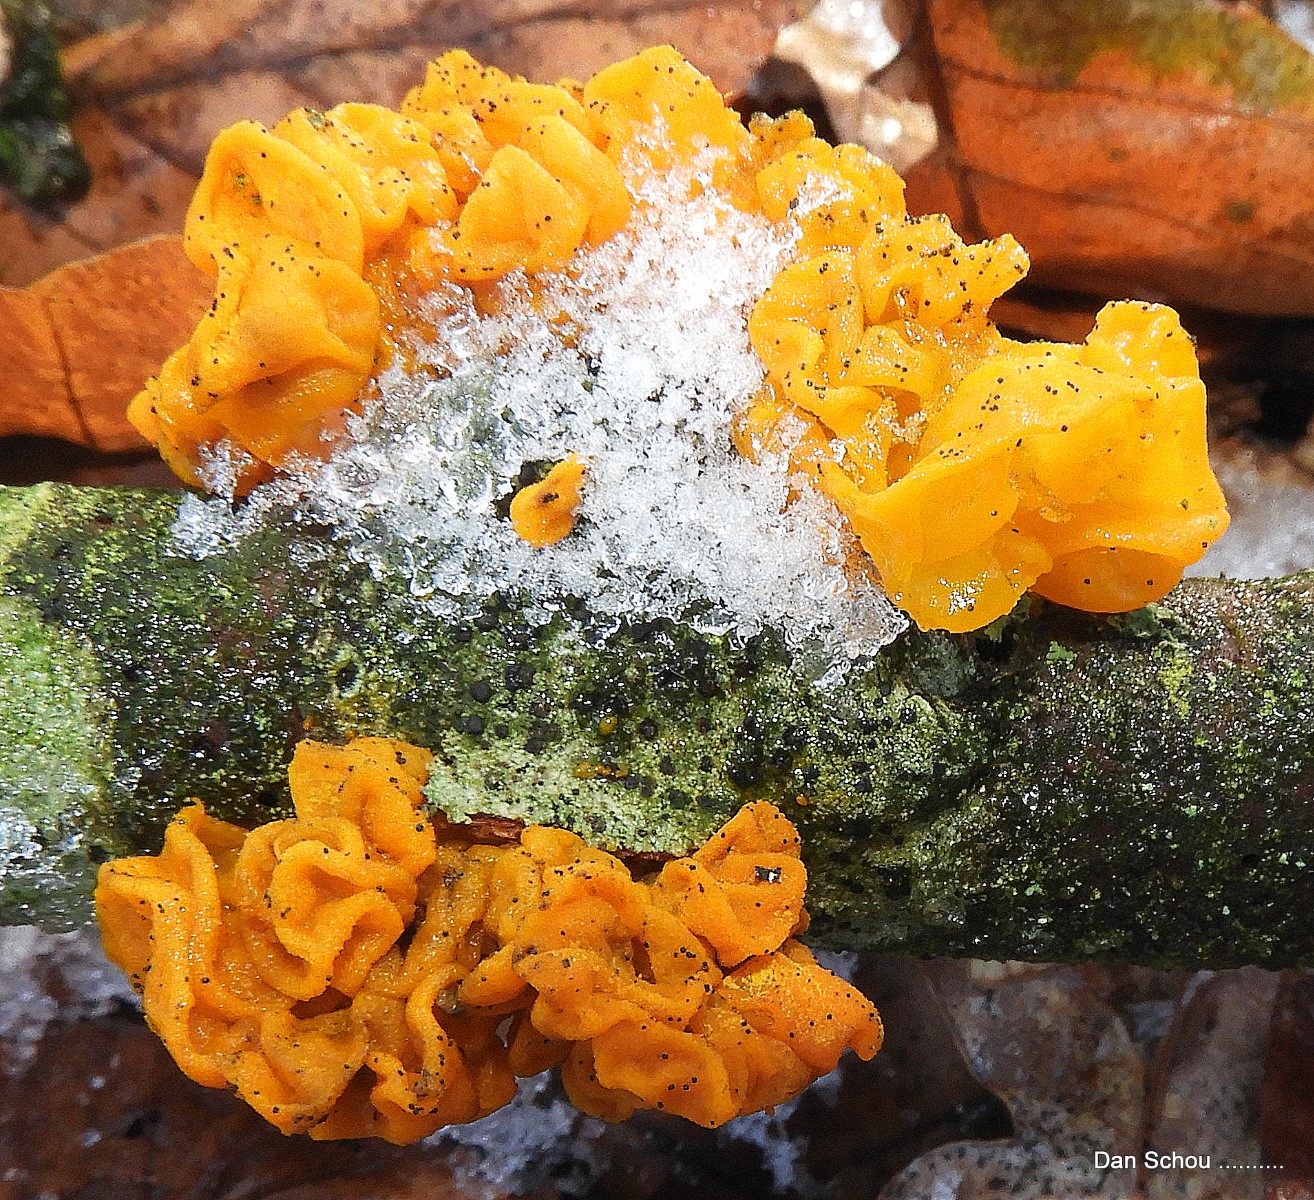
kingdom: Fungi
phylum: Basidiomycota
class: Tremellomycetes
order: Tremellales
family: Tremellaceae
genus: Tremella
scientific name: Tremella mesenterica
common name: gul bævresvamp
